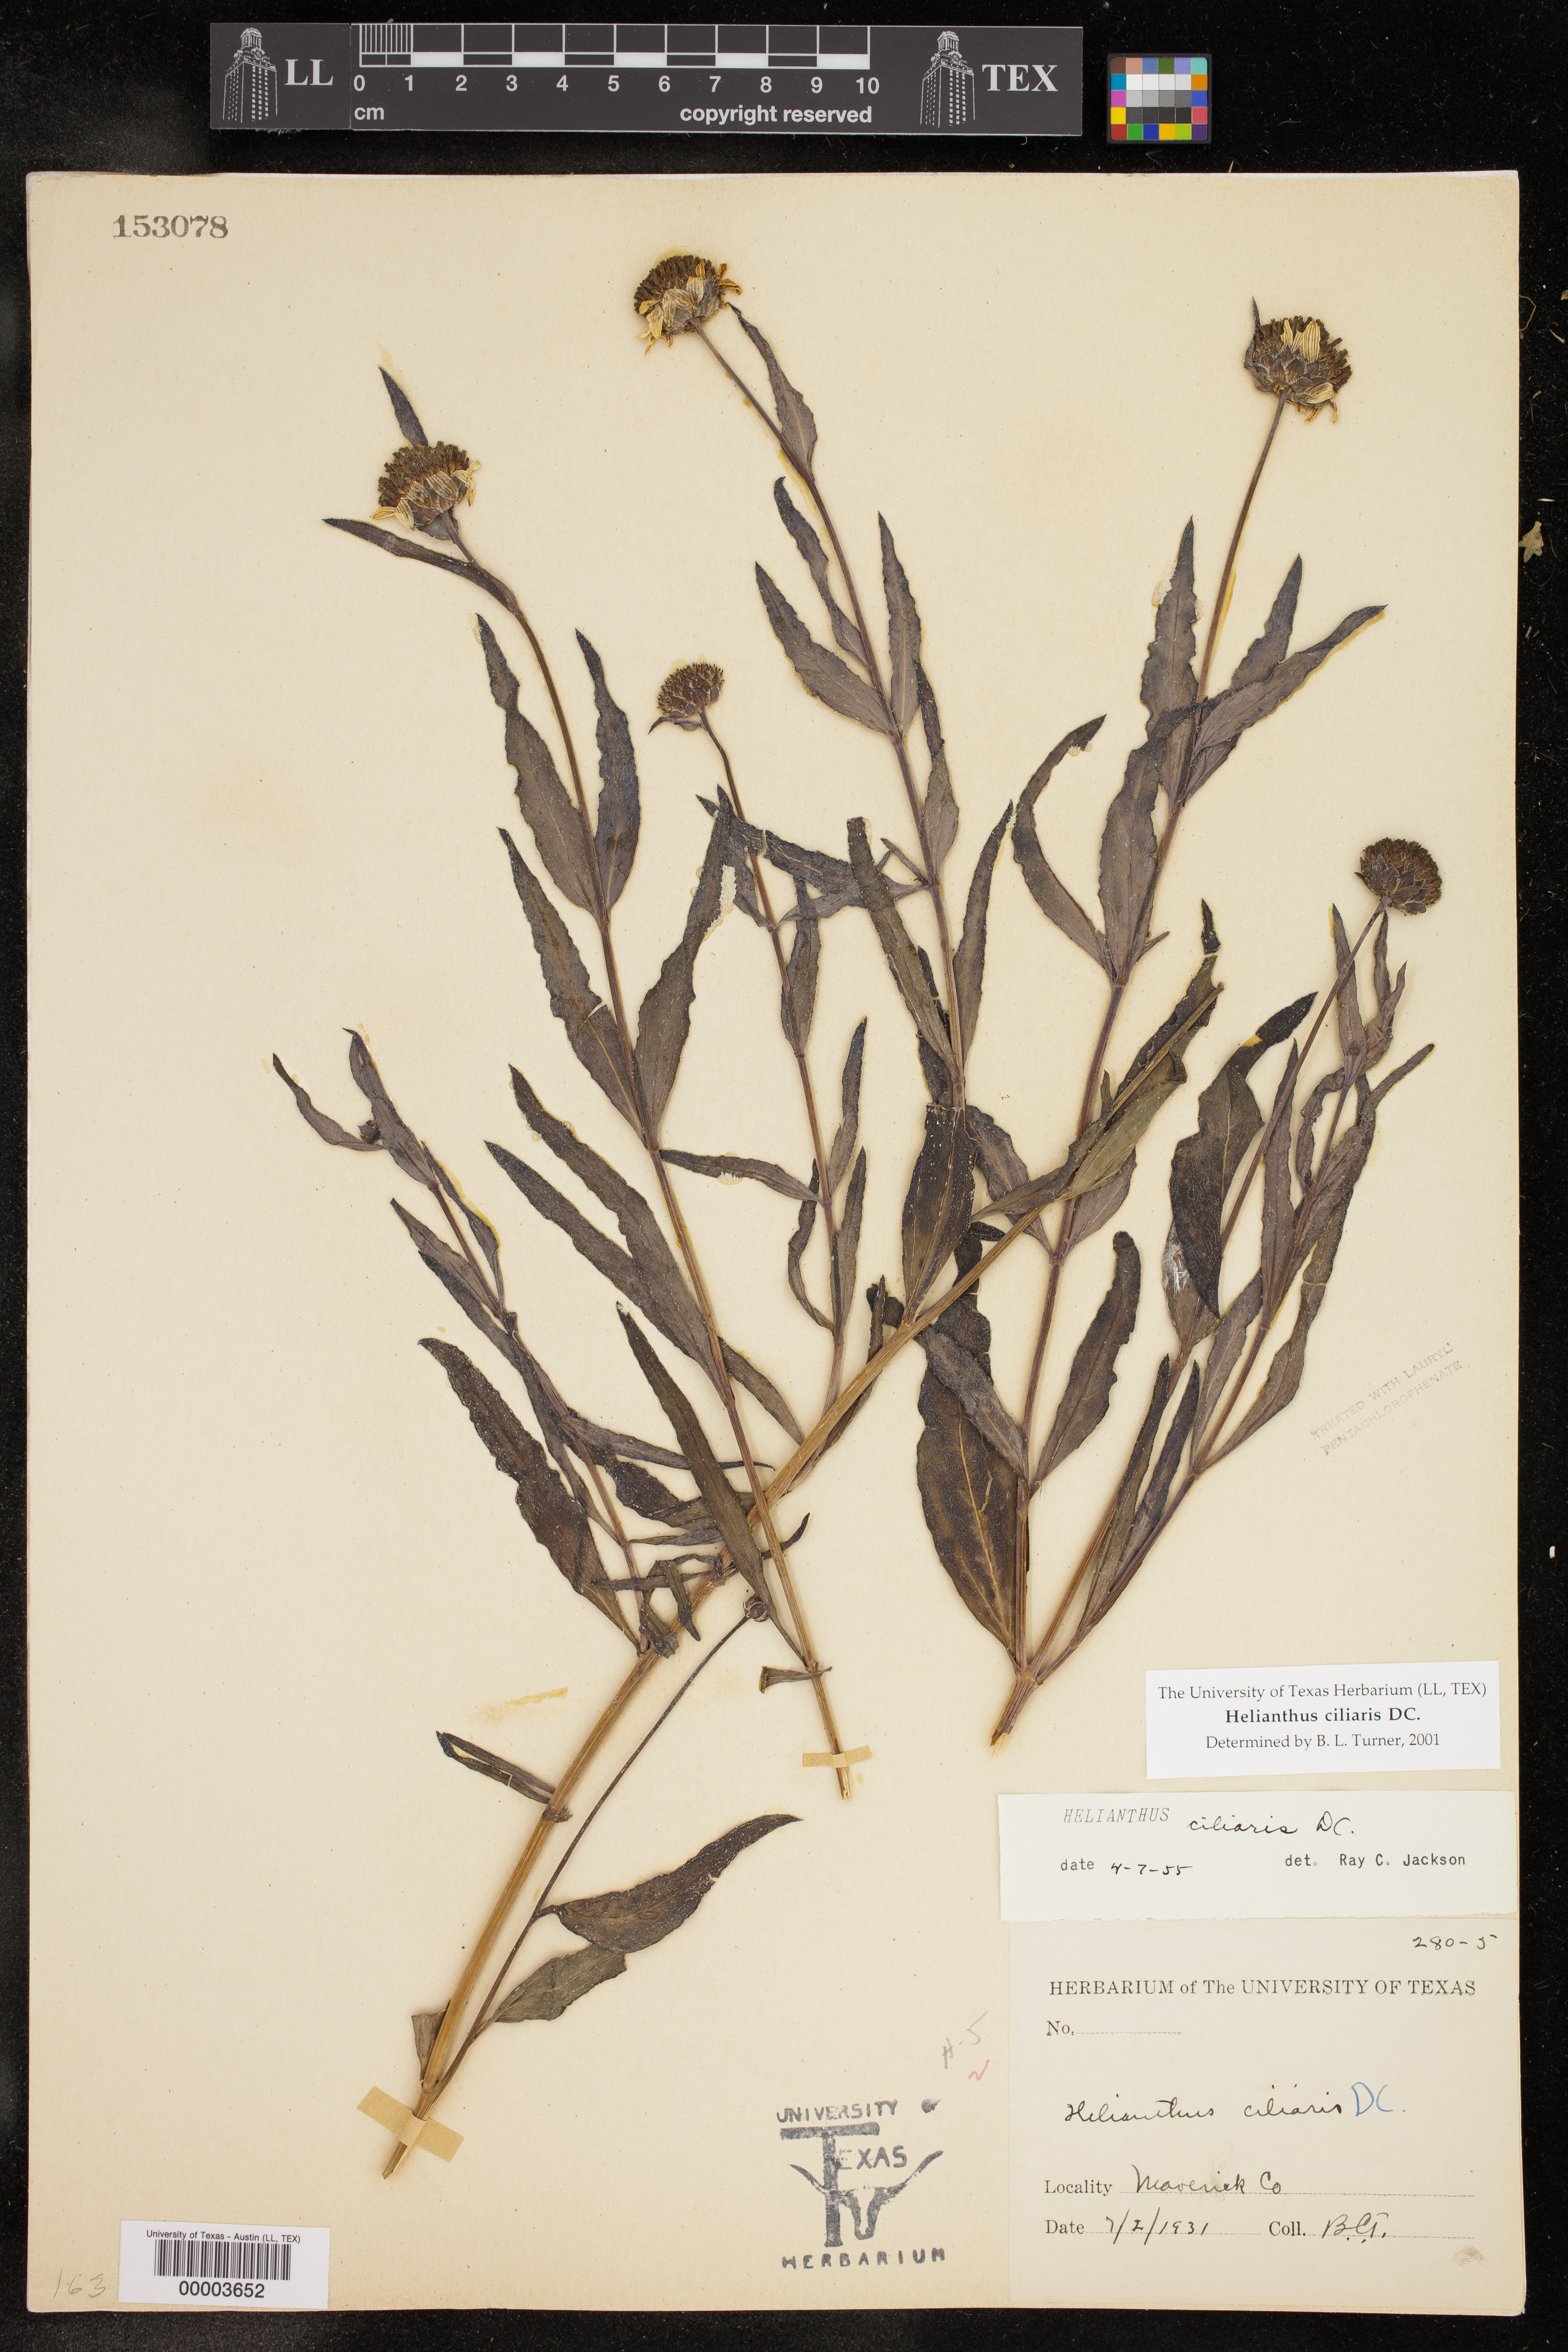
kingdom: Plantae
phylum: Tracheophyta
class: Magnoliopsida
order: Asterales
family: Asteraceae
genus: Helianthus
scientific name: Helianthus ciliaris
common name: Texas blueweed
